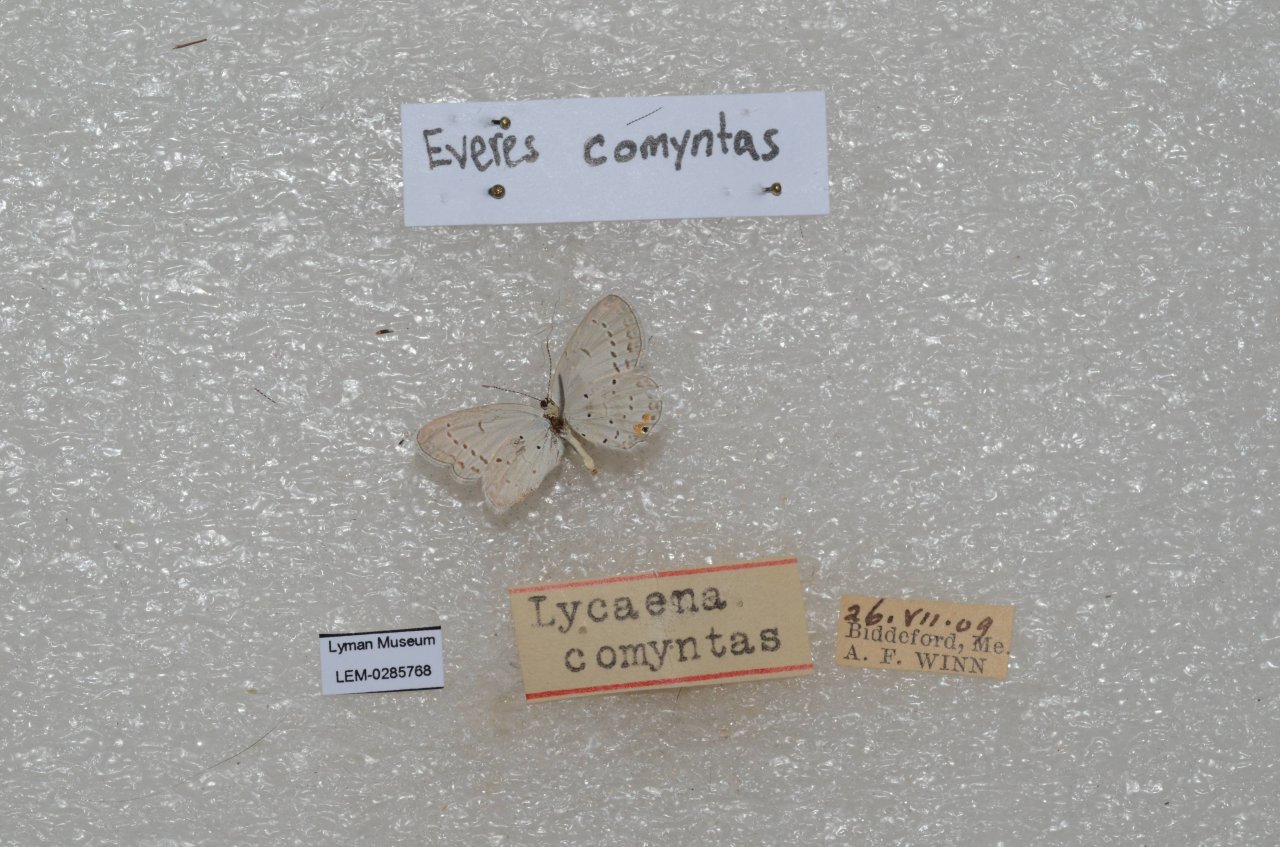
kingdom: Animalia
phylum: Arthropoda
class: Insecta
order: Lepidoptera
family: Lycaenidae
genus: Elkalyce
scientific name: Elkalyce comyntas
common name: Eastern Tailed-Blue
